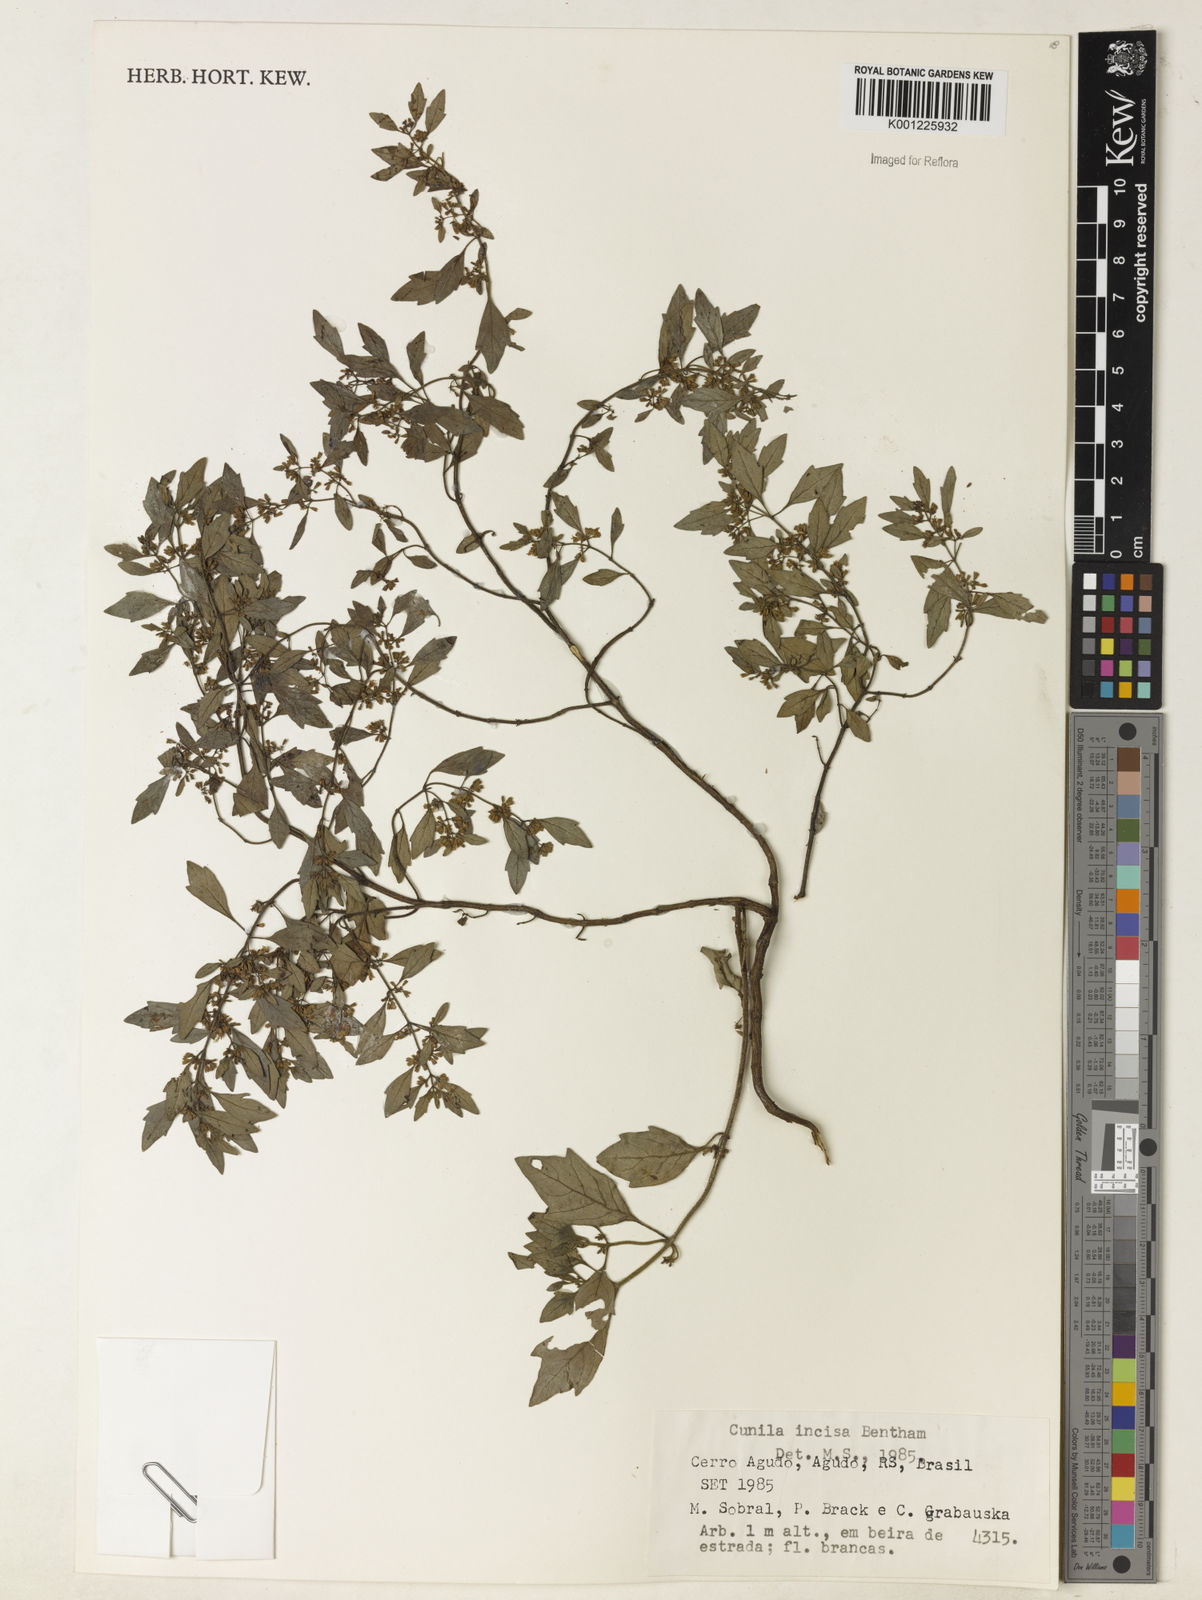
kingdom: Plantae
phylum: Tracheophyta
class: Magnoliopsida
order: Lamiales
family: Lamiaceae
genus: Cunila
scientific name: Cunila incisa
